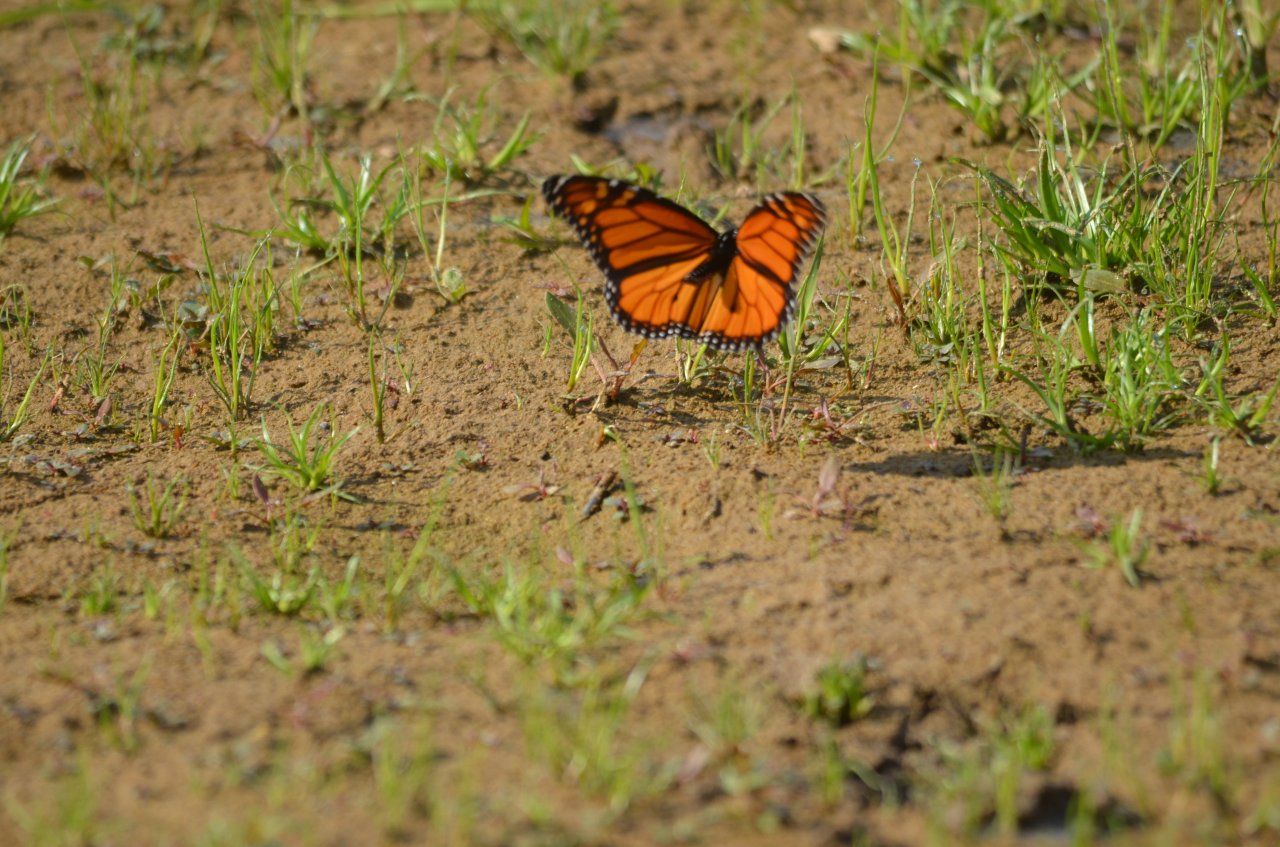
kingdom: Animalia
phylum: Arthropoda
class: Insecta
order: Lepidoptera
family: Nymphalidae
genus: Danaus
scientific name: Danaus plexippus
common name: Monarch
